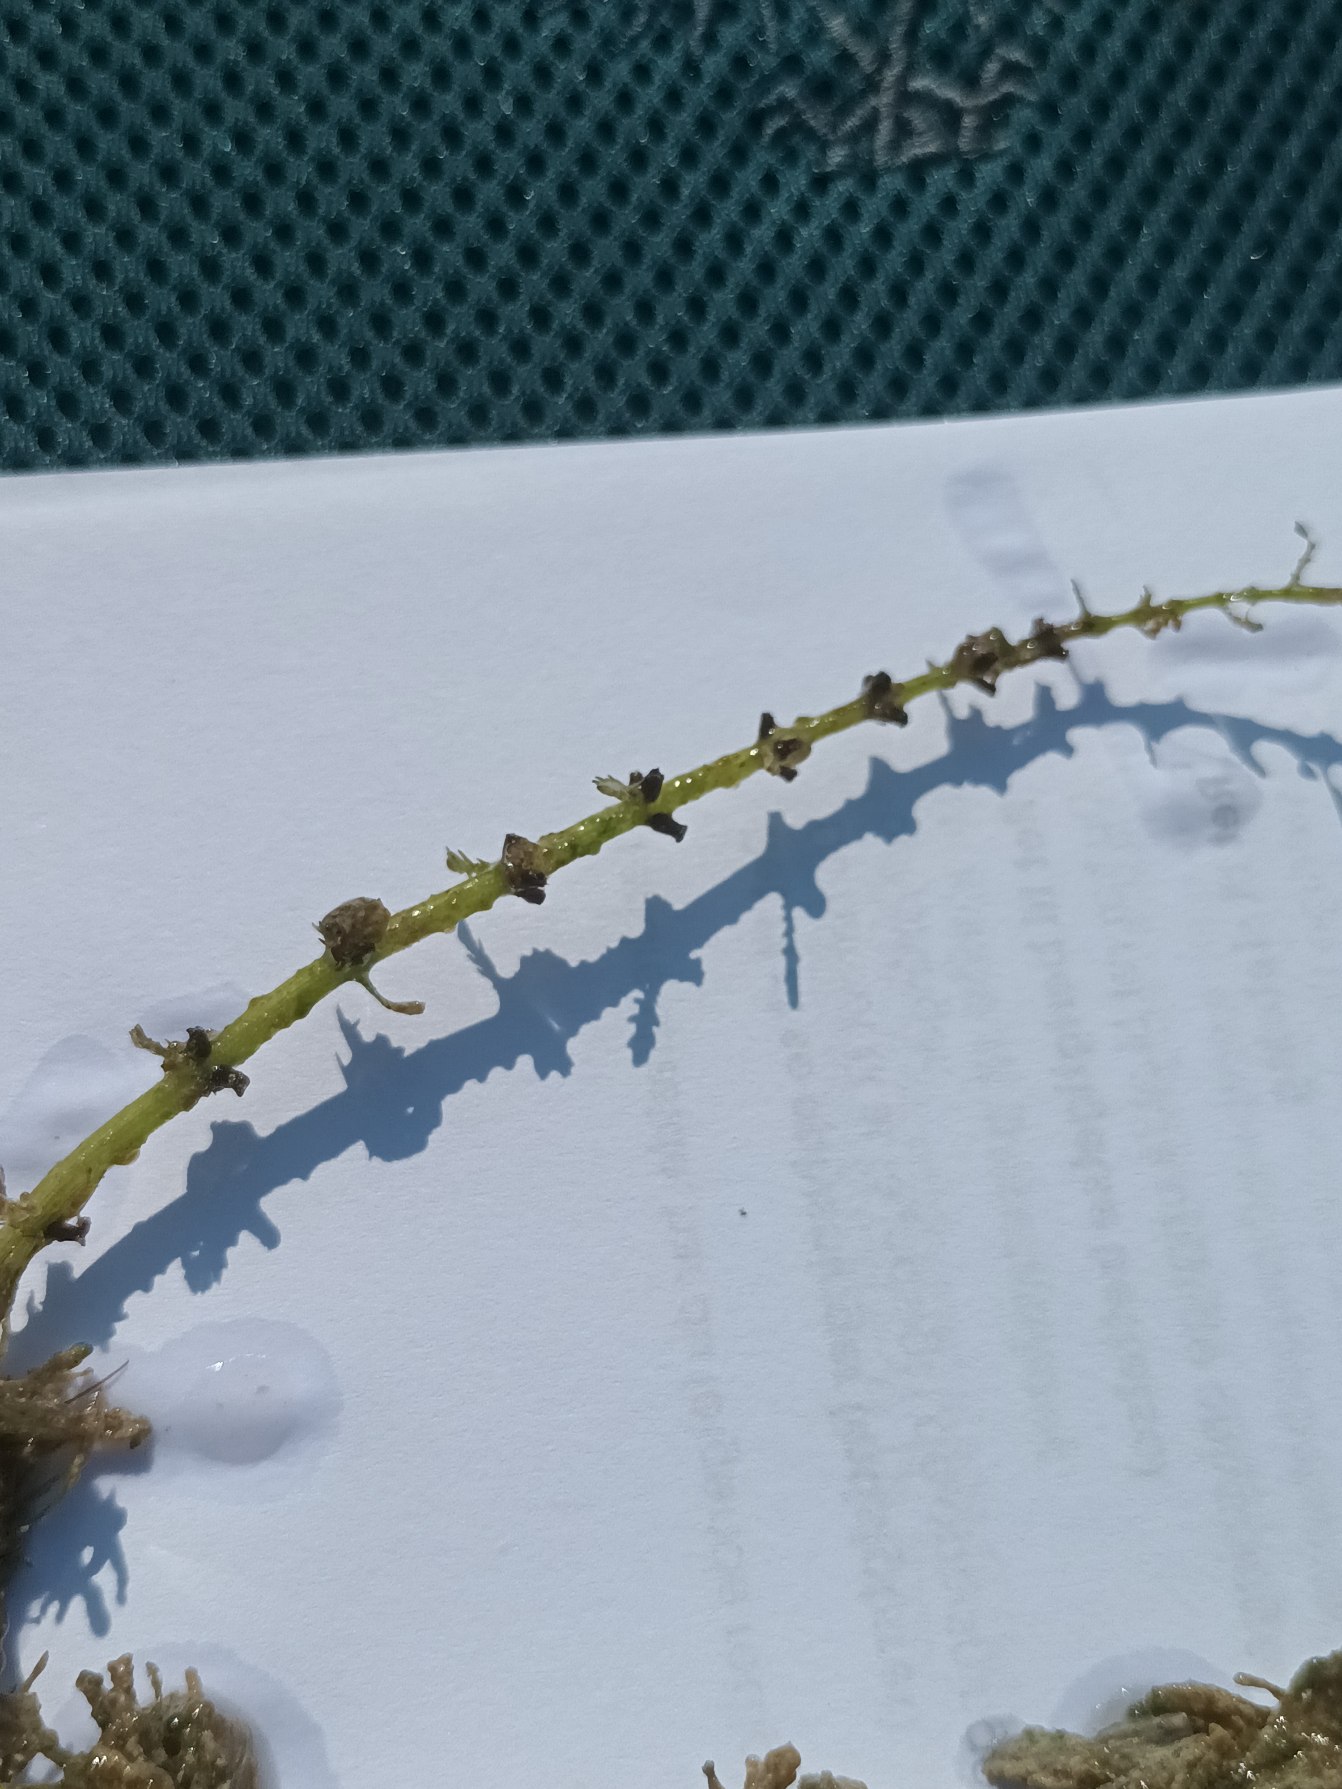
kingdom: Plantae
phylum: Tracheophyta
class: Magnoliopsida
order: Saxifragales
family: Haloragaceae
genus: Myriophyllum
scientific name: Myriophyllum verticillatum
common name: Krans-tusindblad
